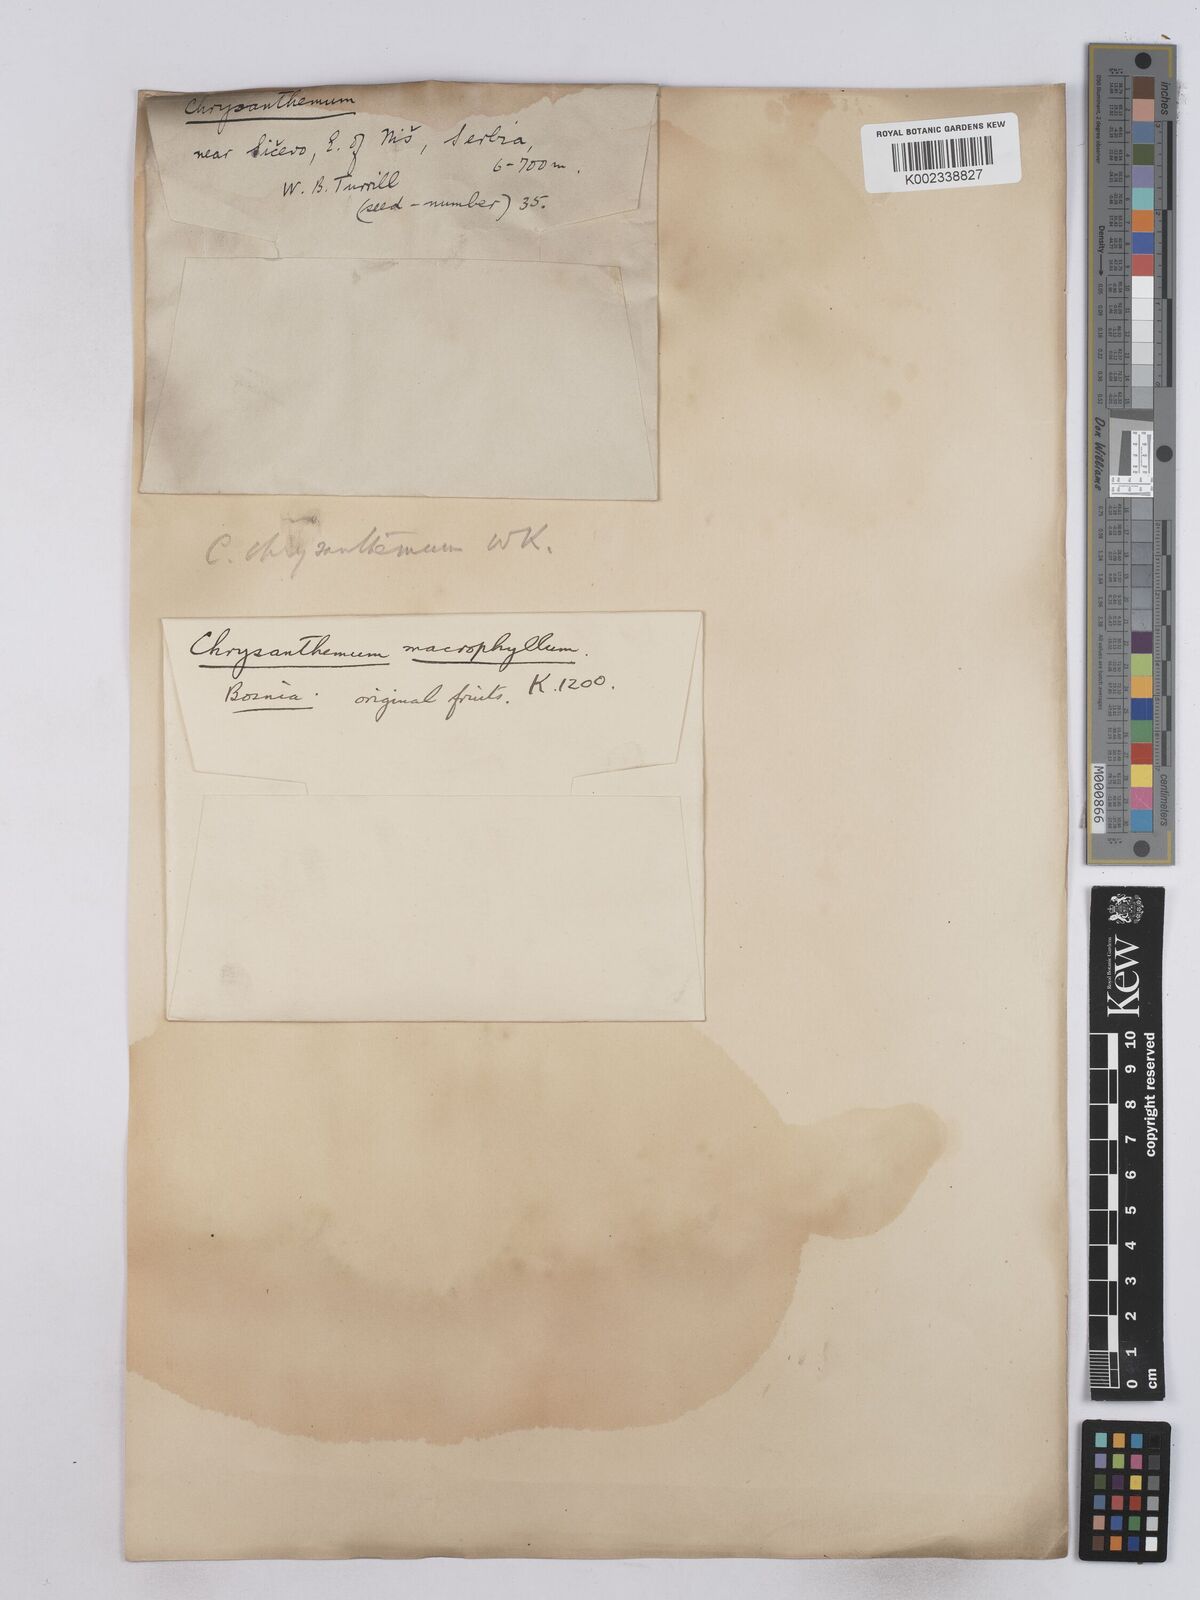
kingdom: Plantae
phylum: Tracheophyta
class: Magnoliopsida
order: Asterales
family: Asteraceae
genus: Tanacetum
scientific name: Tanacetum macrophyllum
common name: Rayed tansy
